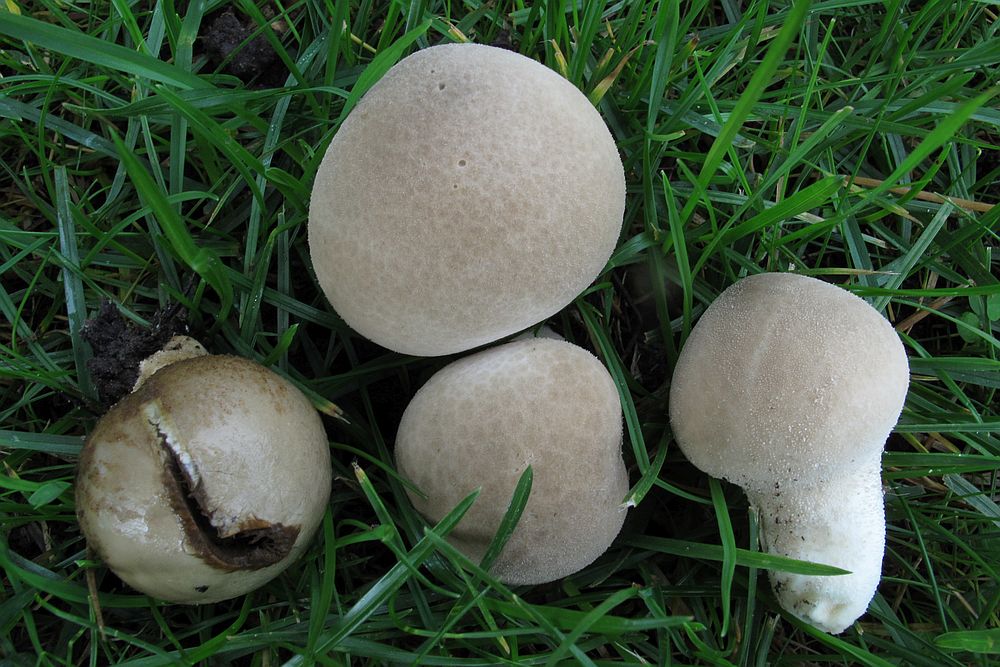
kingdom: Fungi
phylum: Basidiomycota
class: Agaricomycetes
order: Agaricales
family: Lycoperdaceae
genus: Lycoperdon
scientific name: Lycoperdon lividum
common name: mark-støvbold
